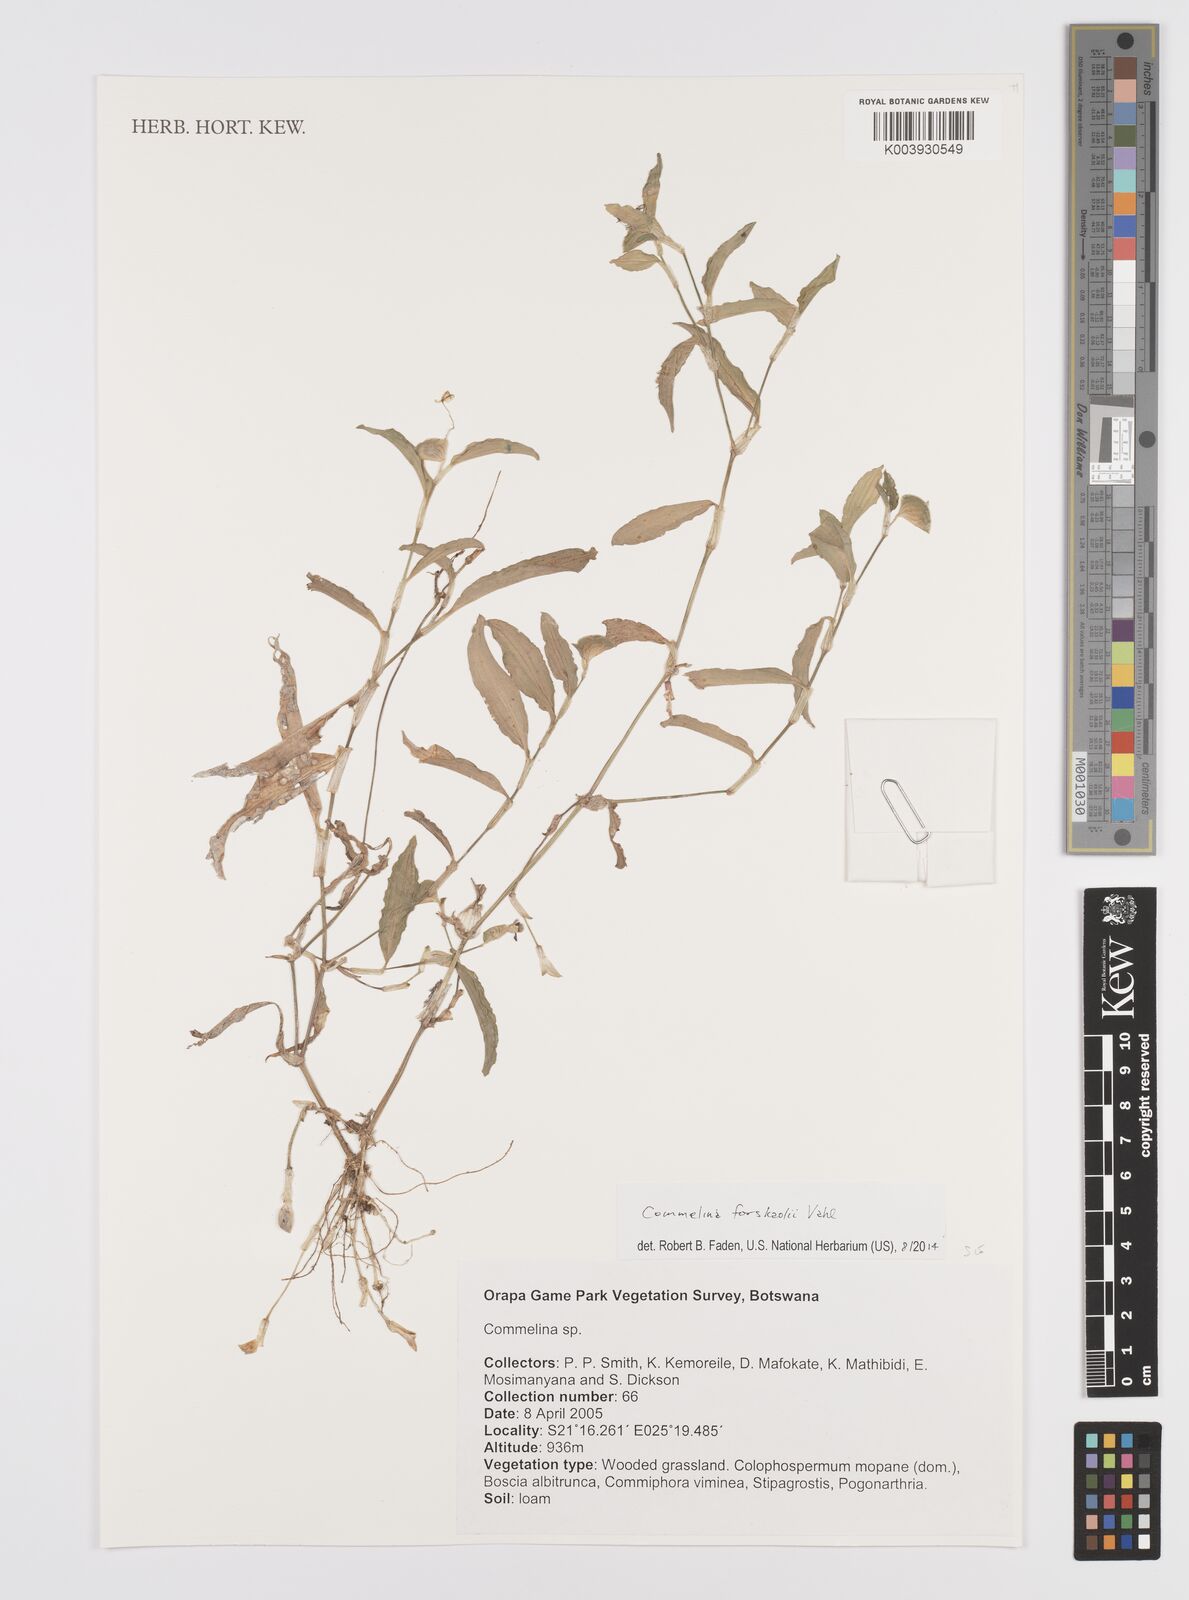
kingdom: Plantae
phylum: Tracheophyta
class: Liliopsida
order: Commelinales
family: Commelinaceae
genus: Commelina
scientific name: Commelina forskaolii
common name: Rat's ear
